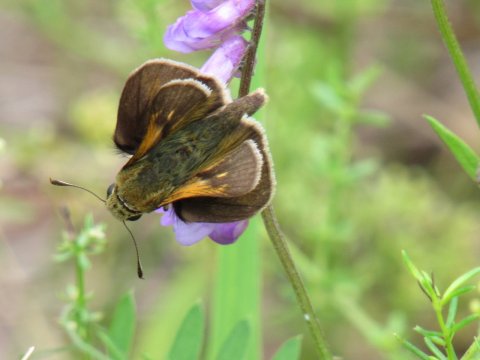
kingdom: Animalia
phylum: Arthropoda
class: Insecta
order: Lepidoptera
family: Hesperiidae
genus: Polites
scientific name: Polites themistocles
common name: Tawny-edged Skipper
